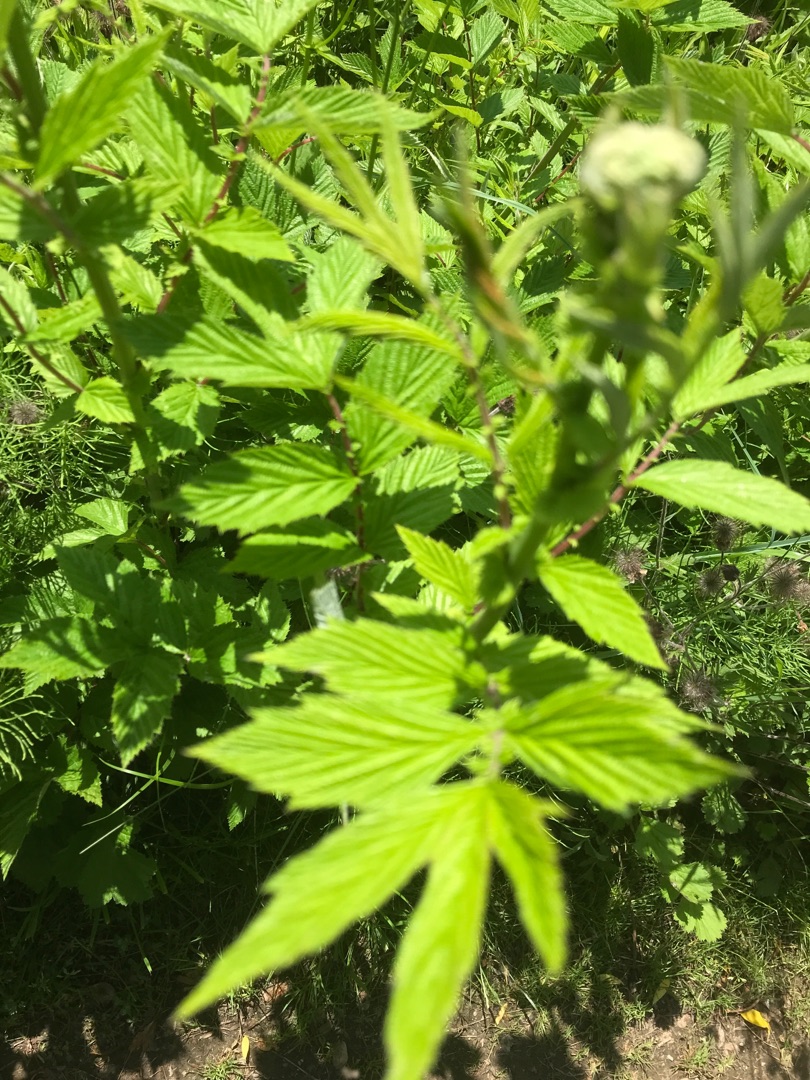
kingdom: Plantae
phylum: Tracheophyta
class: Magnoliopsida
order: Rosales
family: Rosaceae
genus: Filipendula
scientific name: Filipendula ulmaria
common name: Almindelig mjødurt
